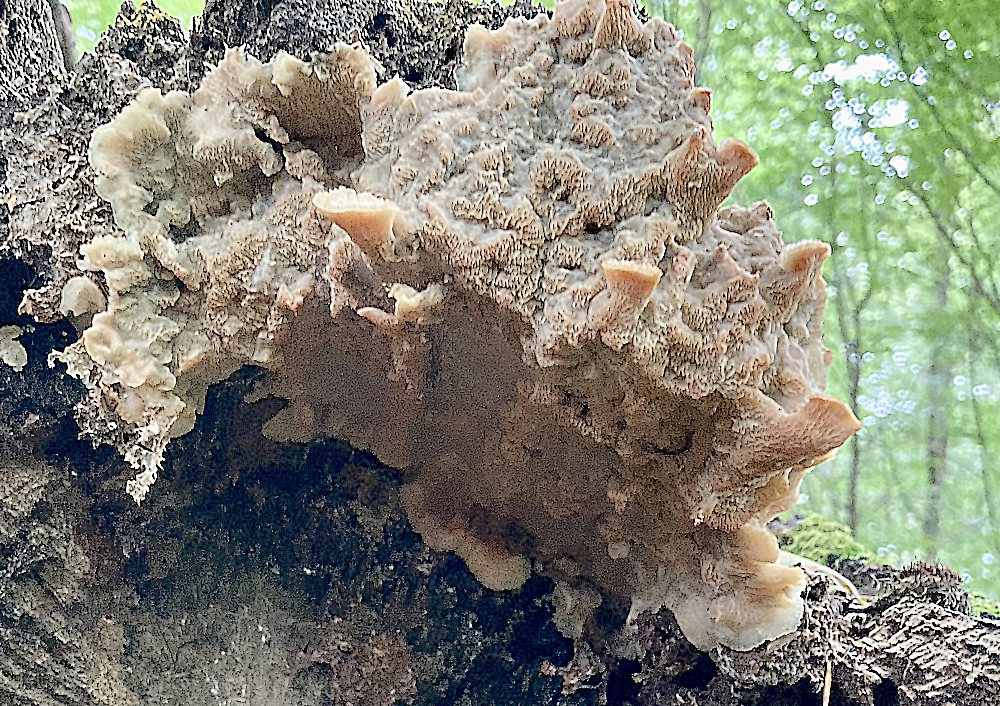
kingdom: Fungi
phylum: Basidiomycota
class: Agaricomycetes
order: Polyporales
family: Meruliaceae
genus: Phlebia
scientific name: Phlebia tremellosa
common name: bævrende åresvamp
